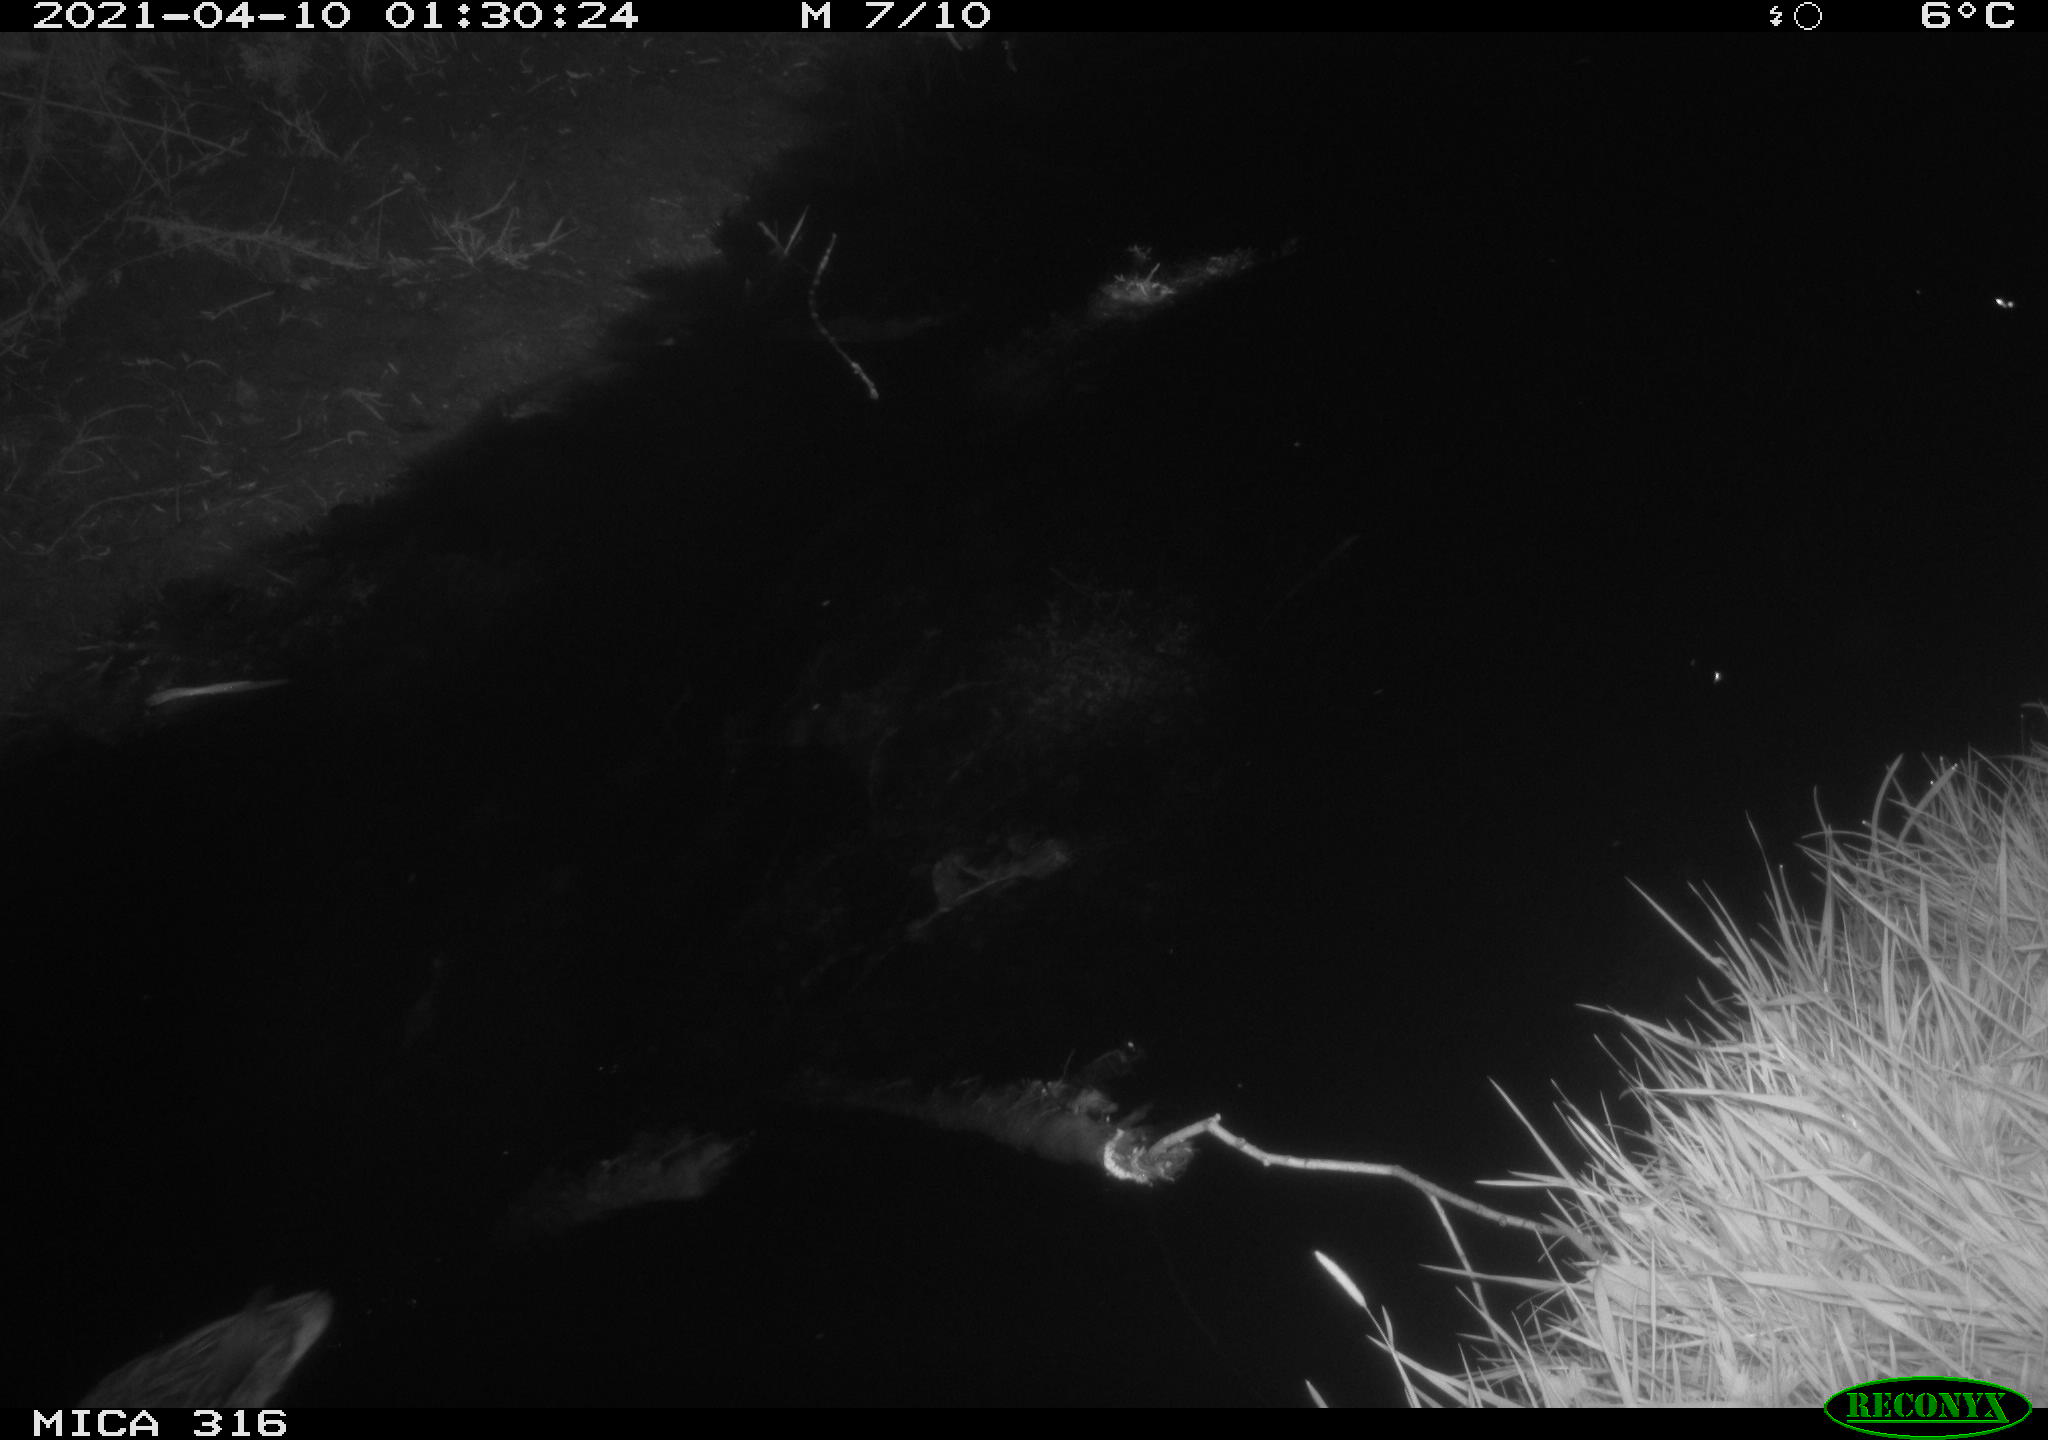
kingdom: Animalia
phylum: Chordata
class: Aves
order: Anseriformes
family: Anatidae
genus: Anas
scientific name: Anas platyrhynchos
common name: Mallard
